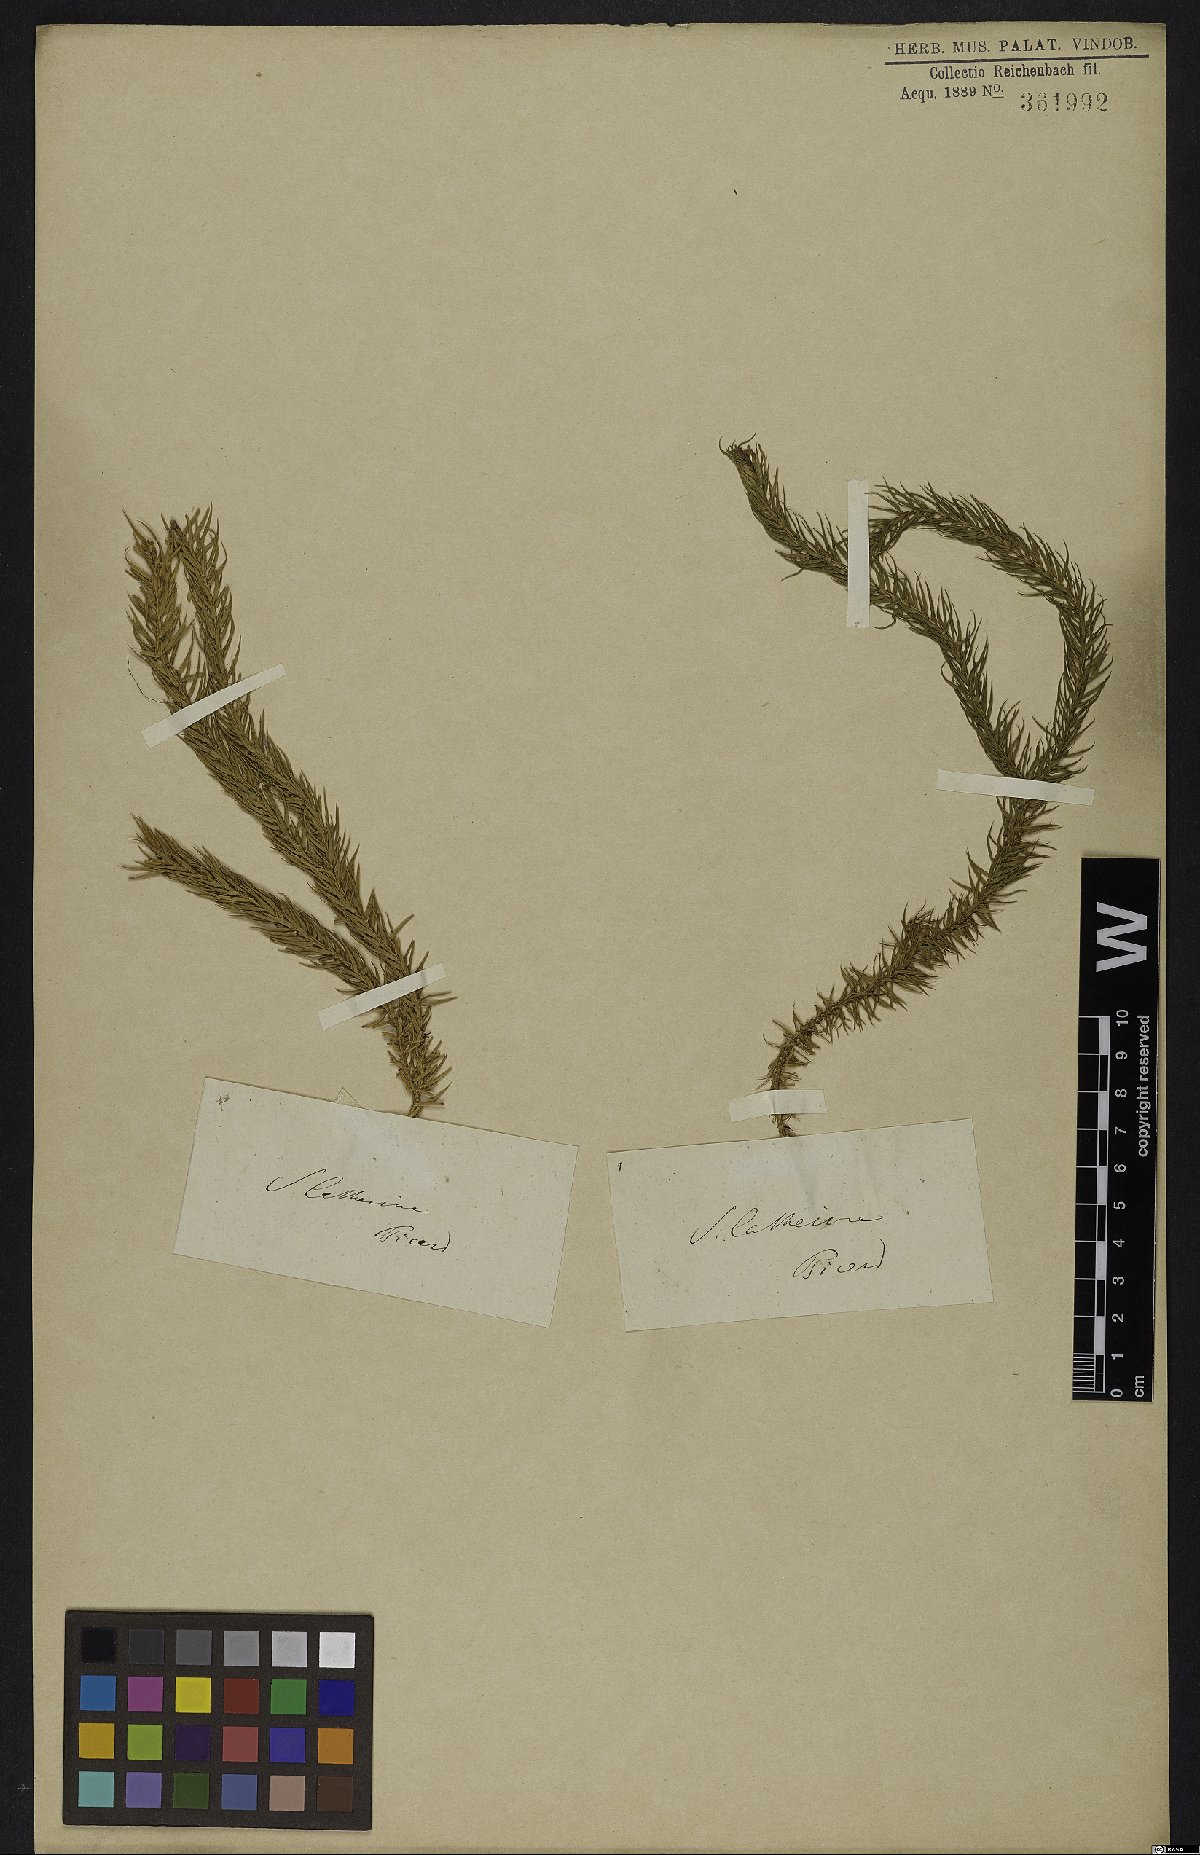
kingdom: Plantae
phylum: Tracheophyta
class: Lycopodiopsida
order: Lycopodiales
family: Lycopodiaceae
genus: Phlegmariurus
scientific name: Phlegmariurus taxifolius
